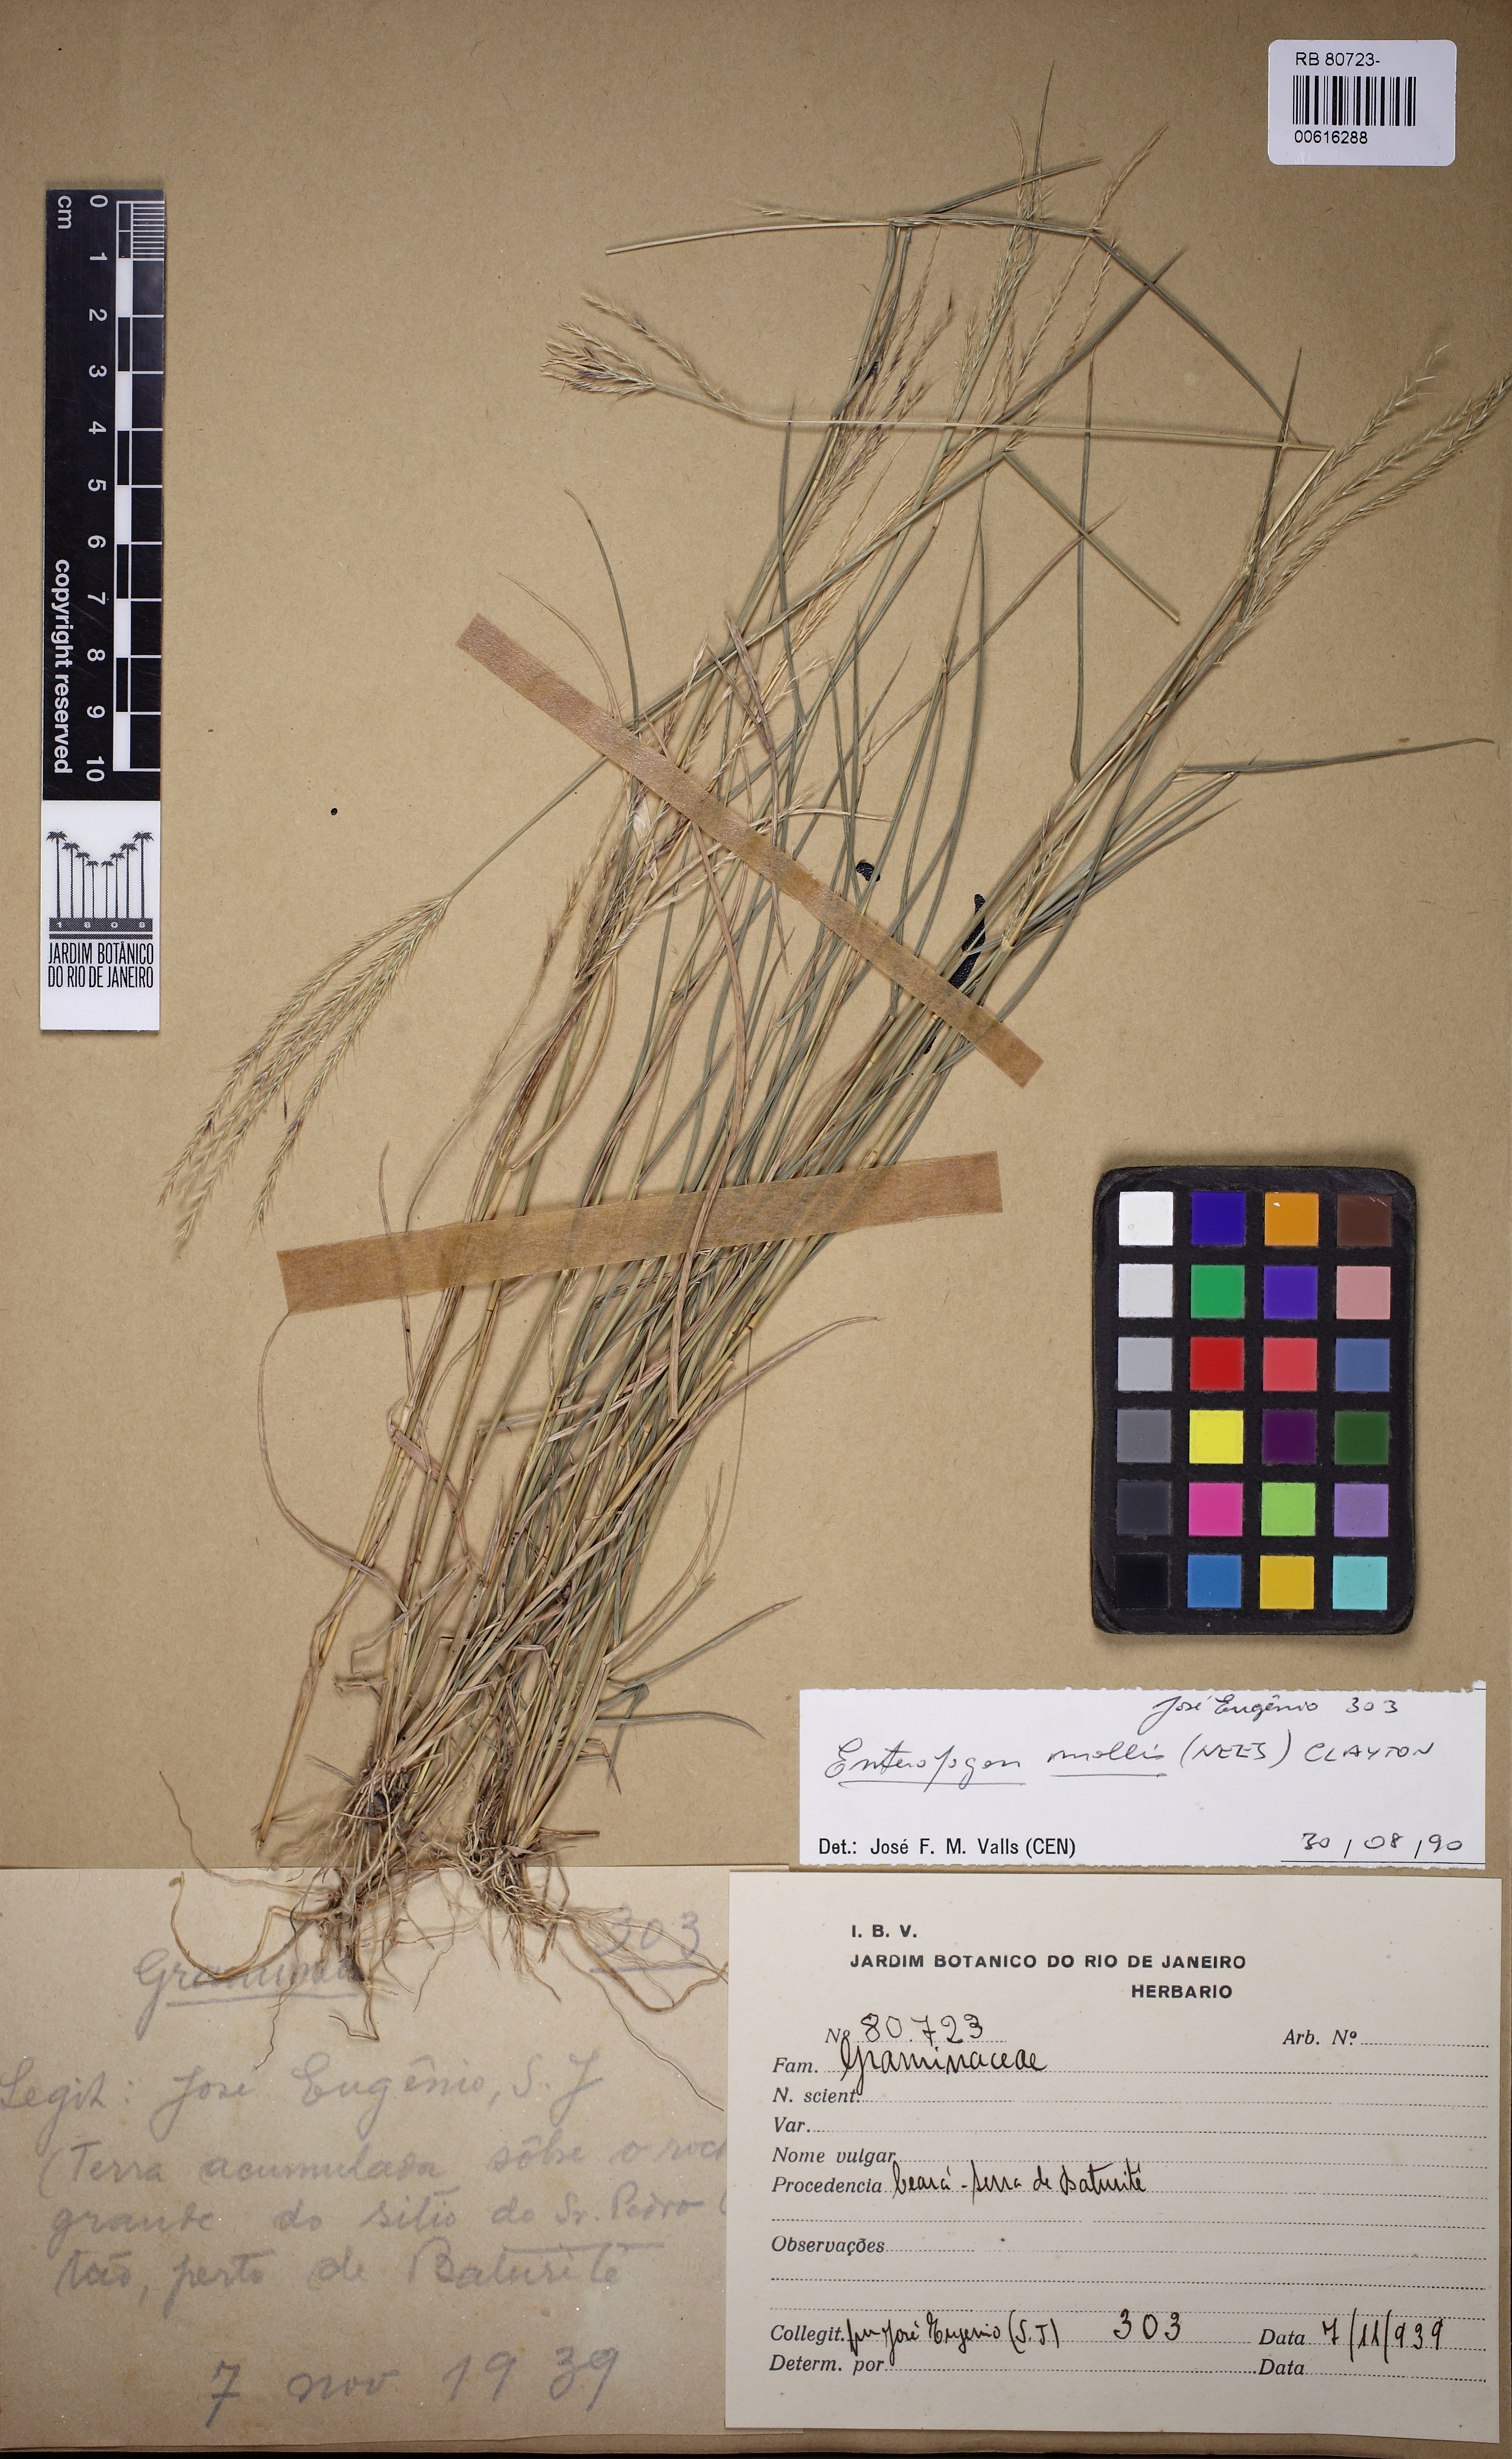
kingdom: Plantae
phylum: Tracheophyta
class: Liliopsida
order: Poales
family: Poaceae
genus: Leptochloa
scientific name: Leptochloa anisopoda
